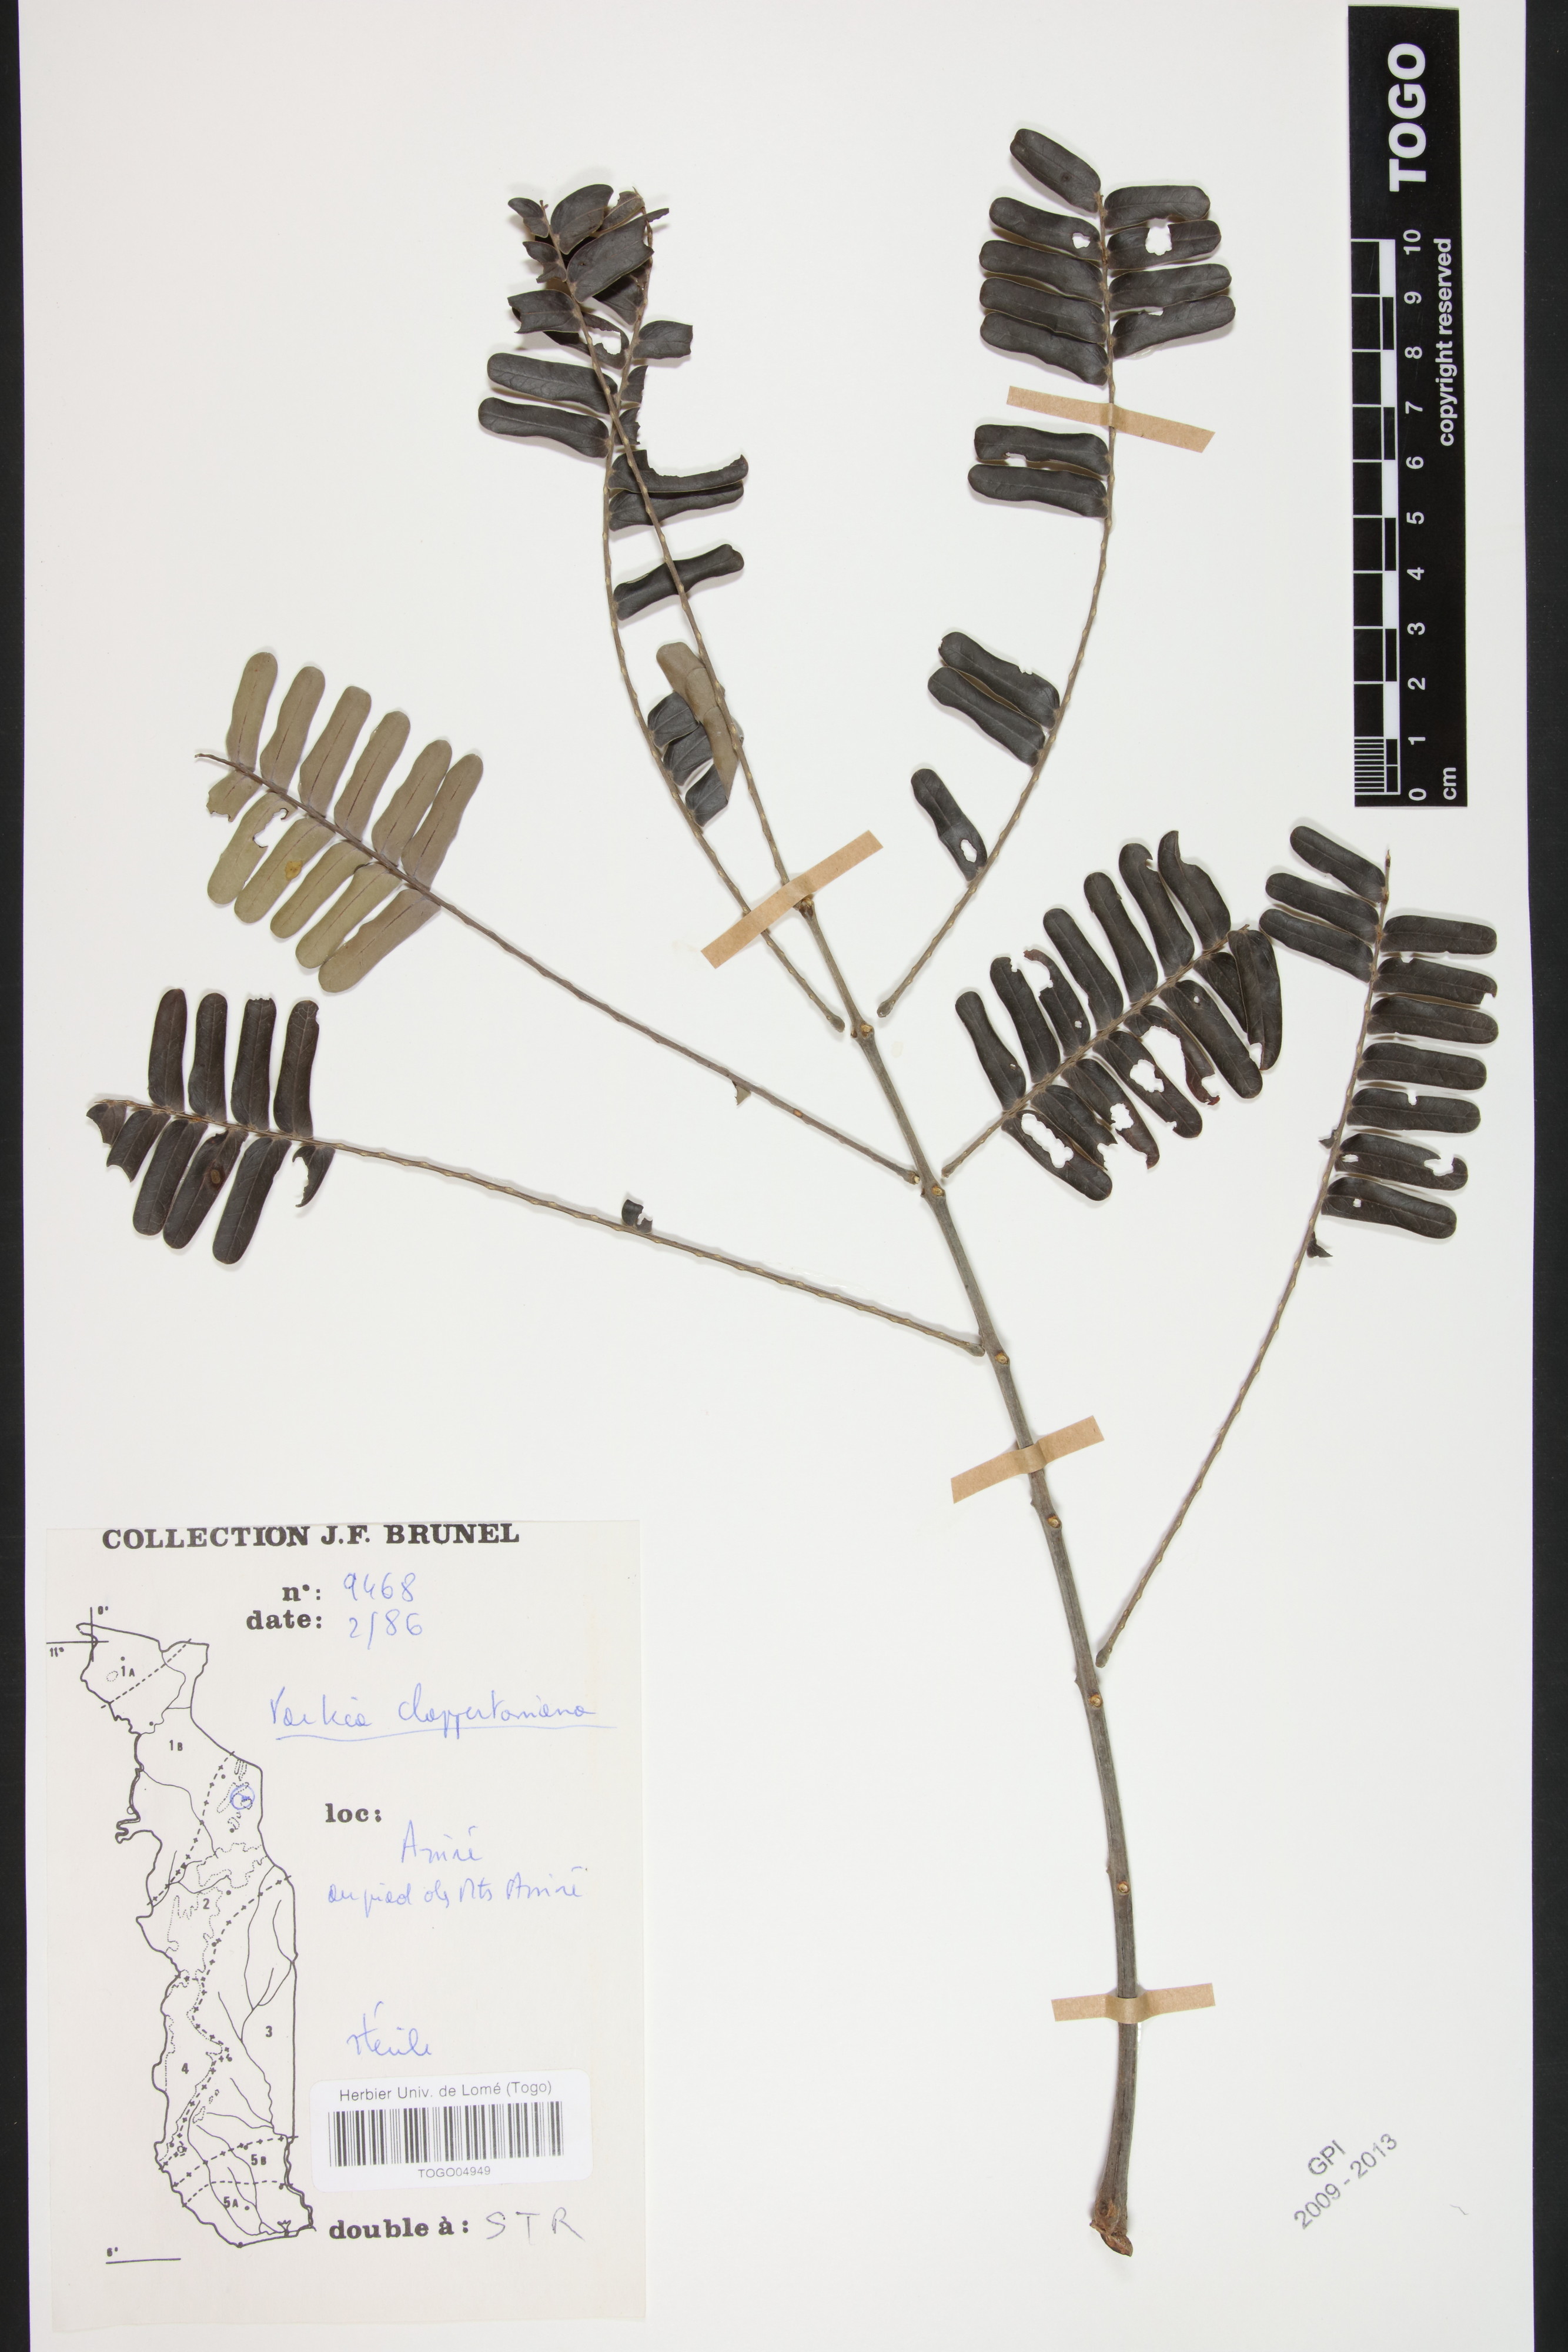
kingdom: Plantae
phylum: Tracheophyta
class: Magnoliopsida
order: Fabales
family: Fabaceae
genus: Parkia
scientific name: Parkia biglobosa
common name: African locust-bean
